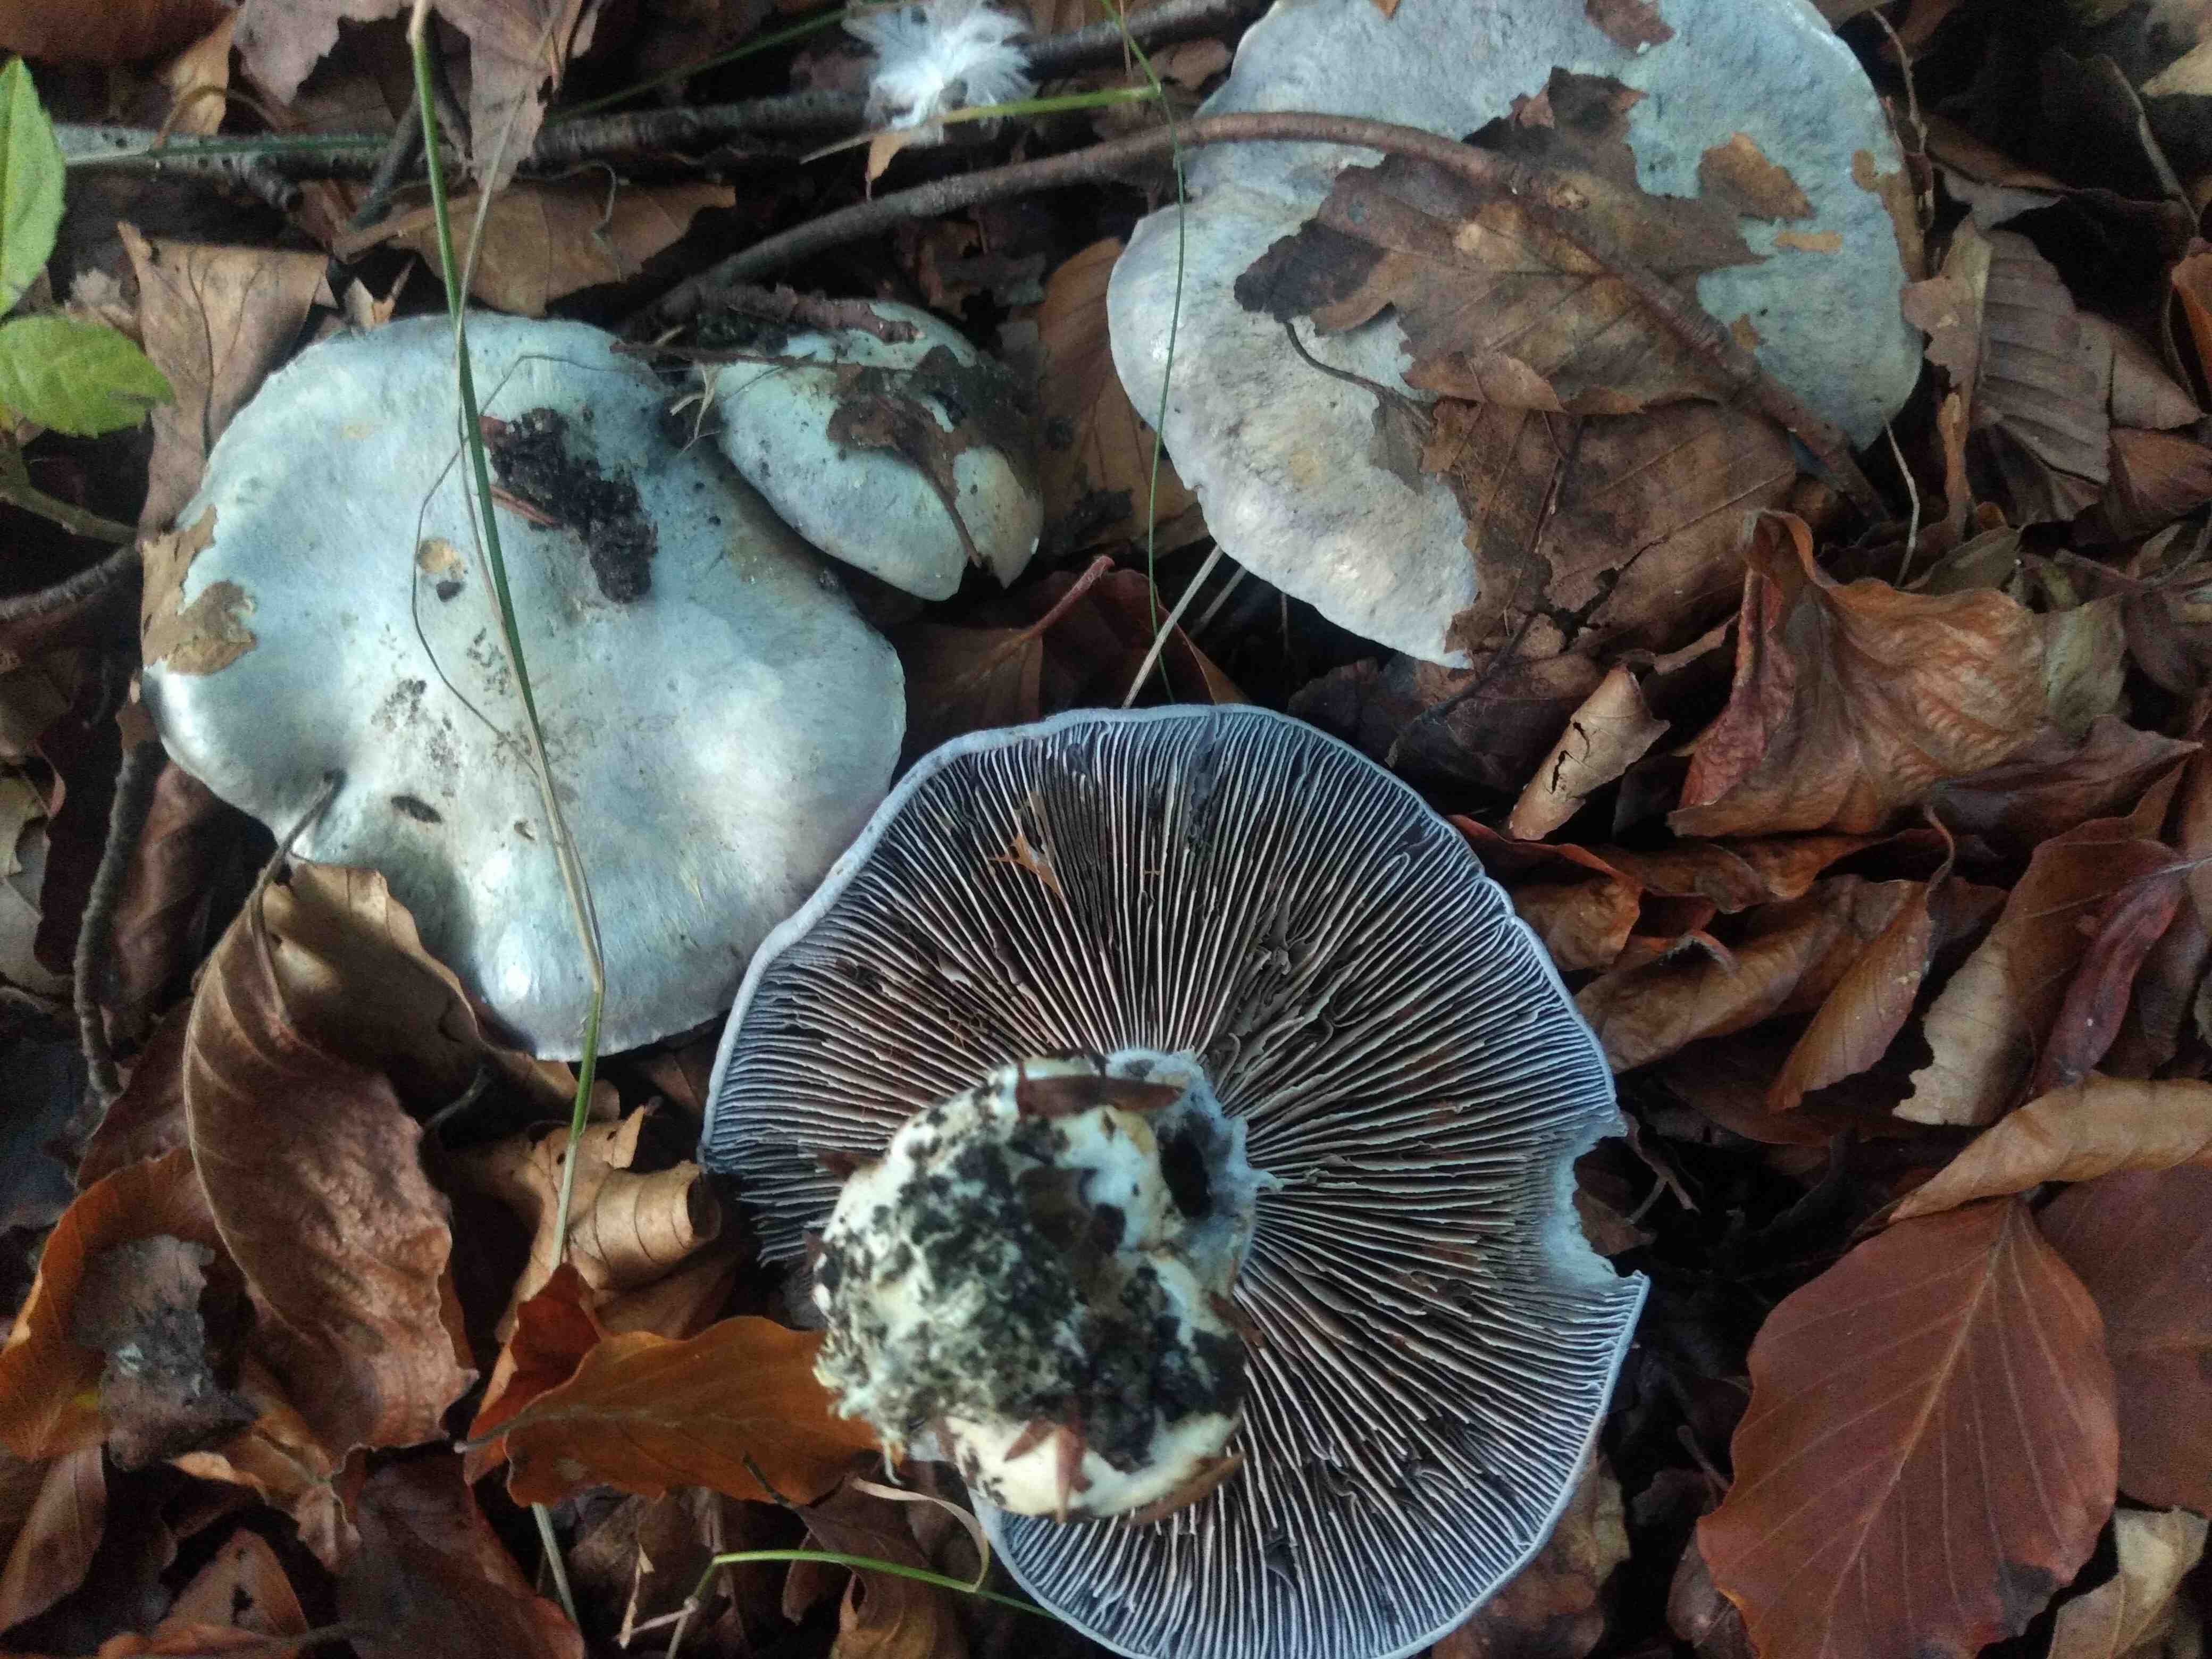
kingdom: Fungi
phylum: Basidiomycota
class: Agaricomycetes
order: Agaricales
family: Cortinariaceae
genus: Cortinarius
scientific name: Cortinarius caerulescens
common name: blåkødet slørhat
